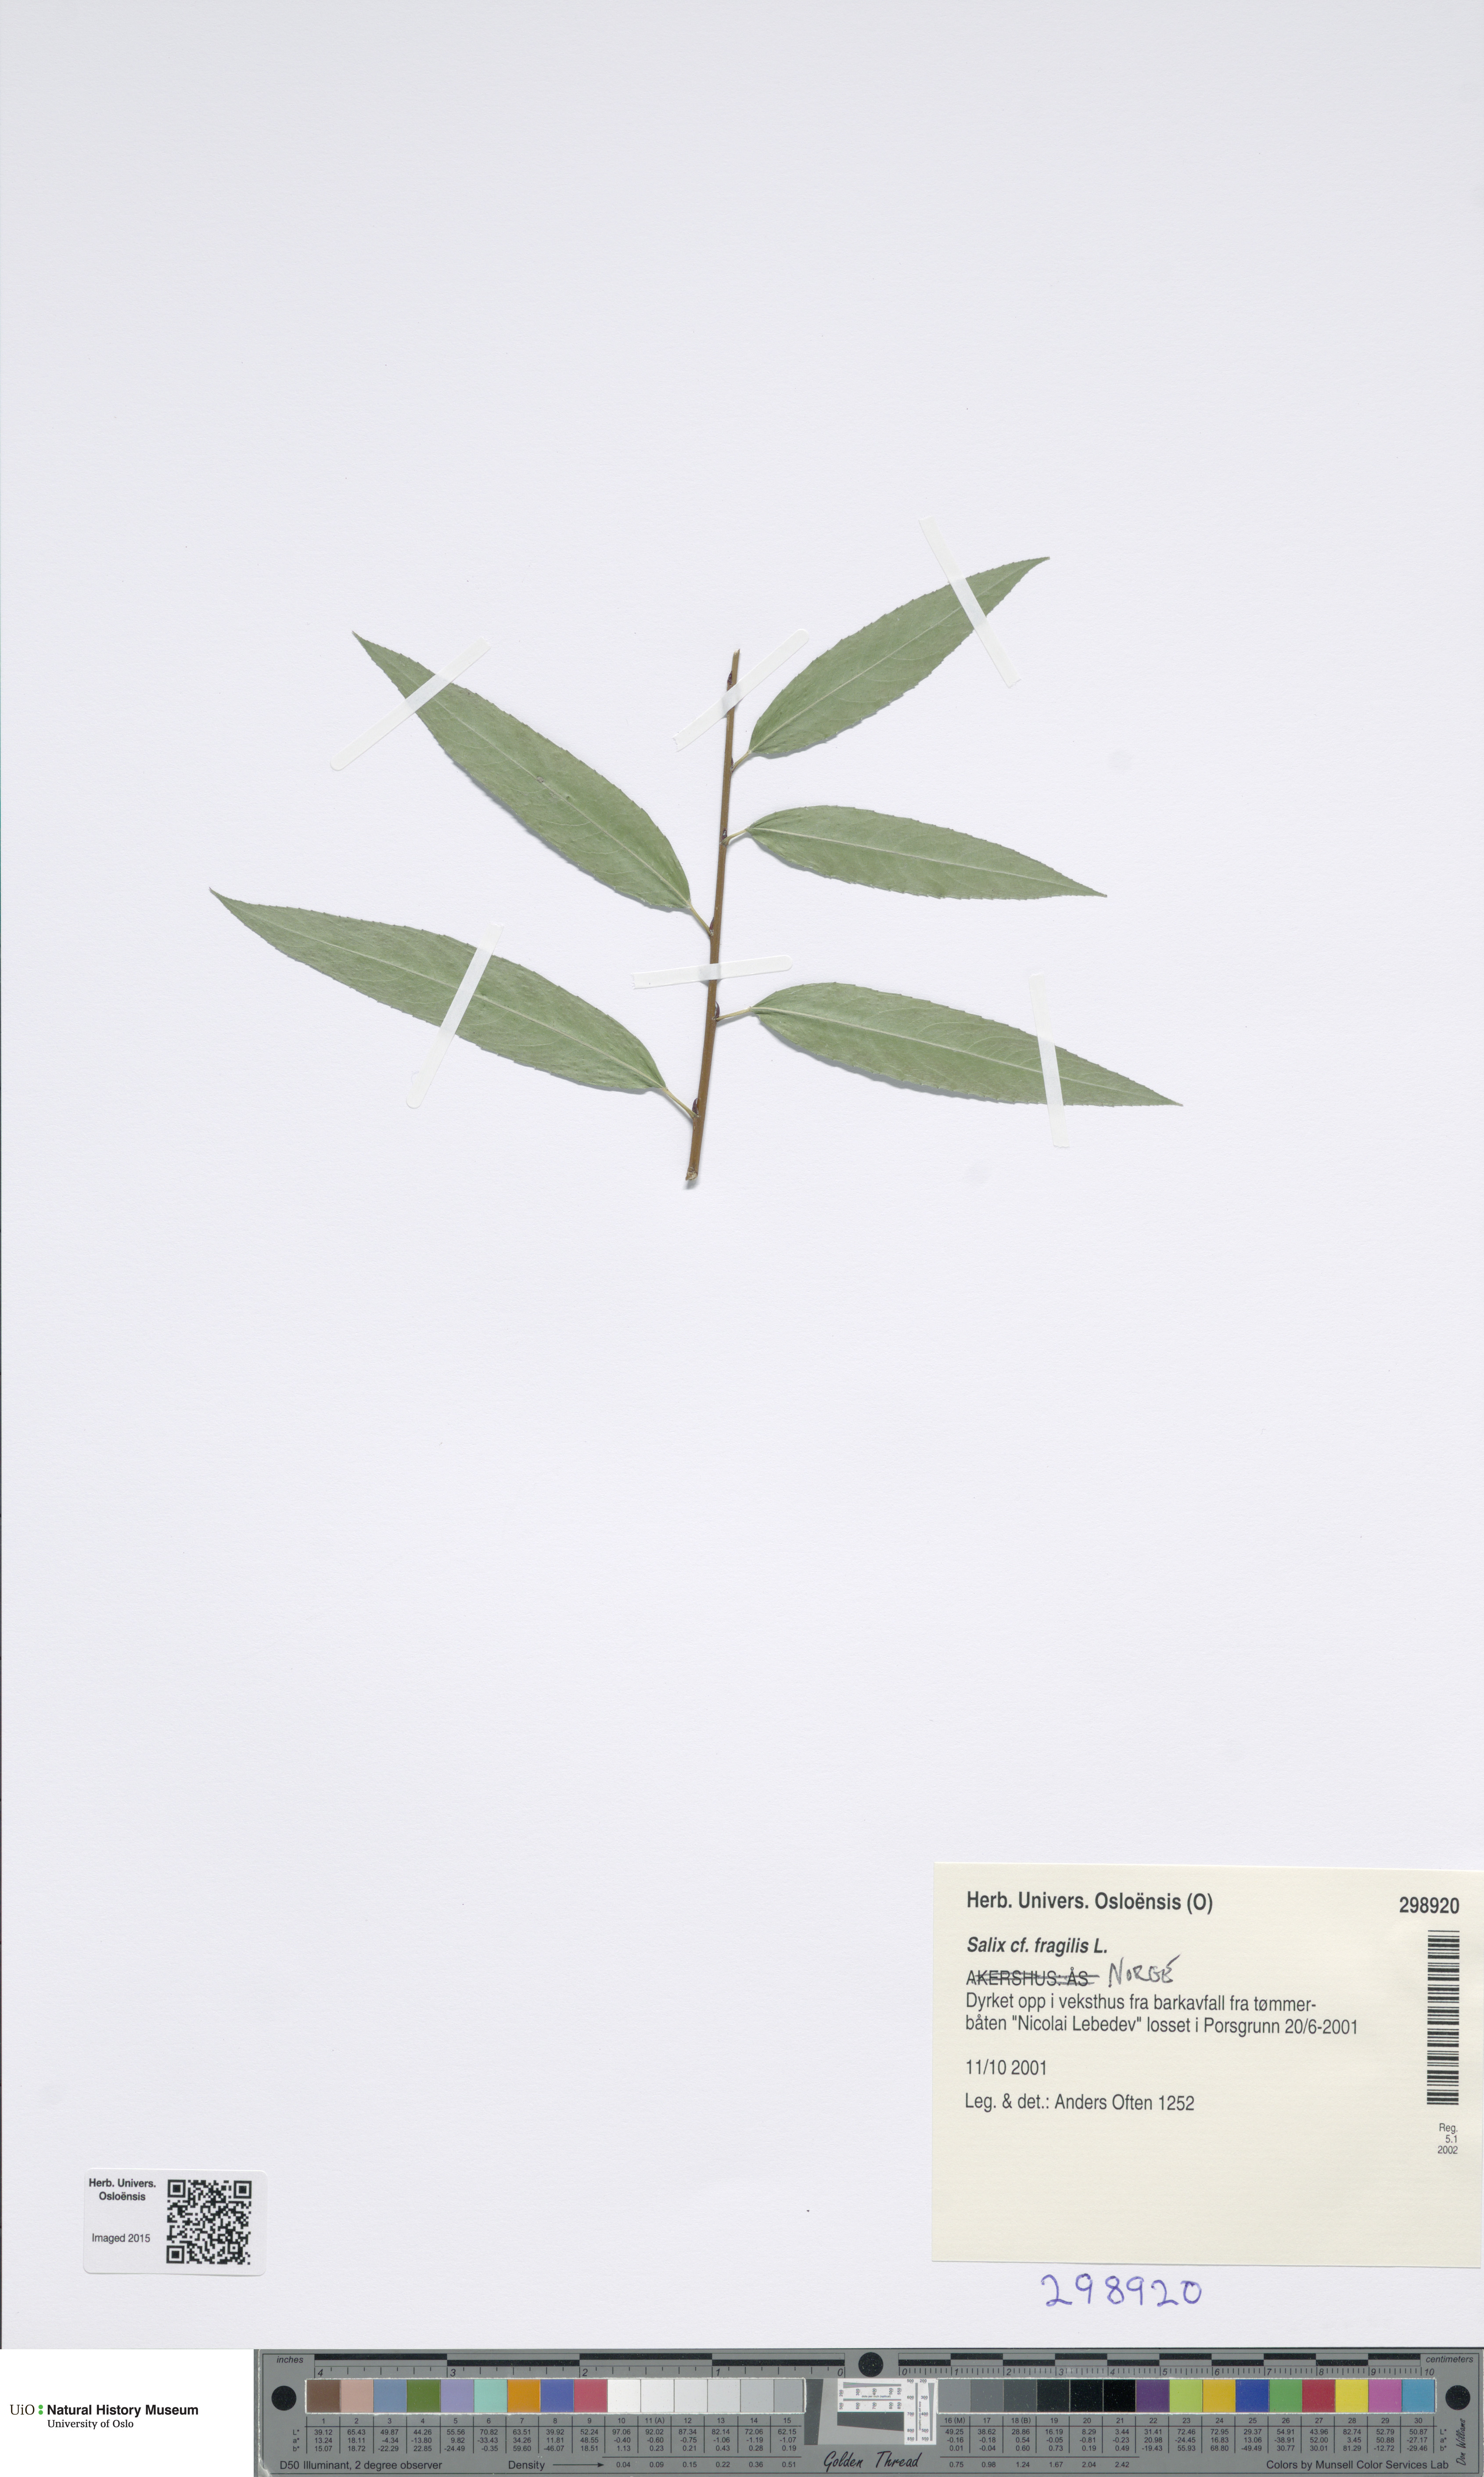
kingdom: Plantae
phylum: Tracheophyta
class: Magnoliopsida
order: Malpighiales
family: Salicaceae
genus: Salix
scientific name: Salix fragilis
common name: Crack willow
